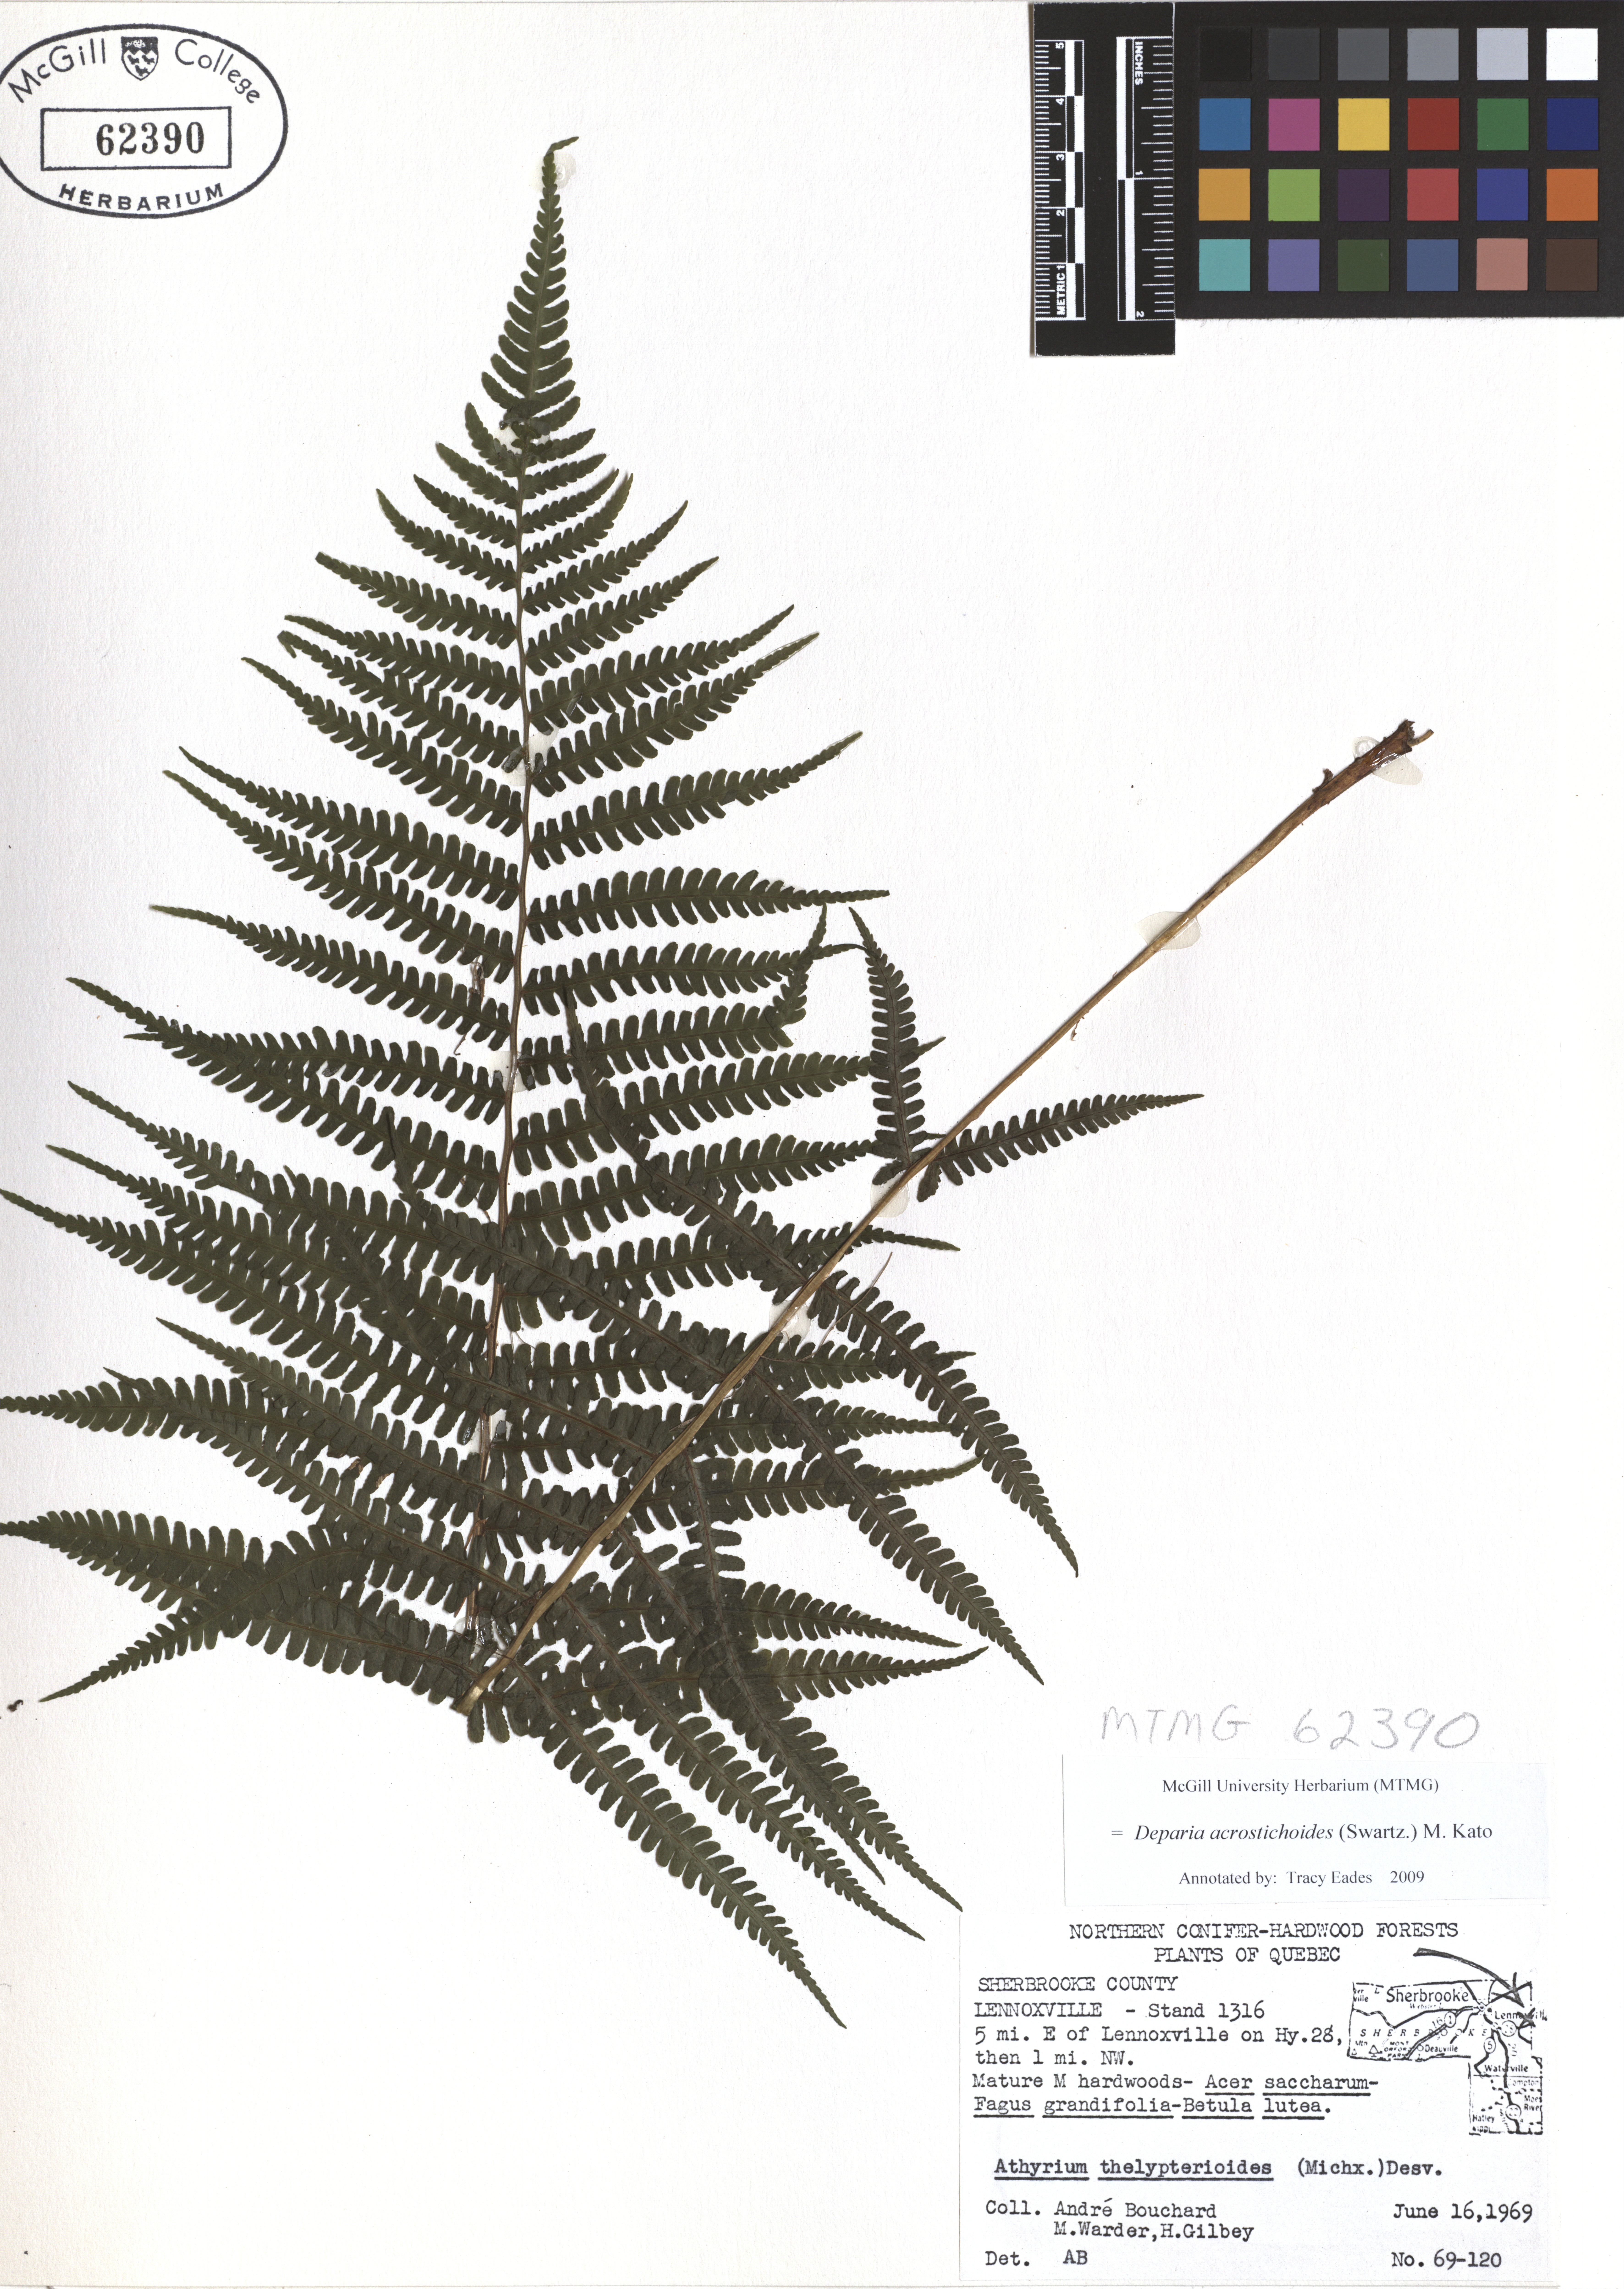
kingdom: Plantae
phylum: Tracheophyta
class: Polypodiopsida
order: Polypodiales
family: Athyriaceae
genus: Deparia
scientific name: Deparia acrostichoides
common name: Silver false spleenwort
